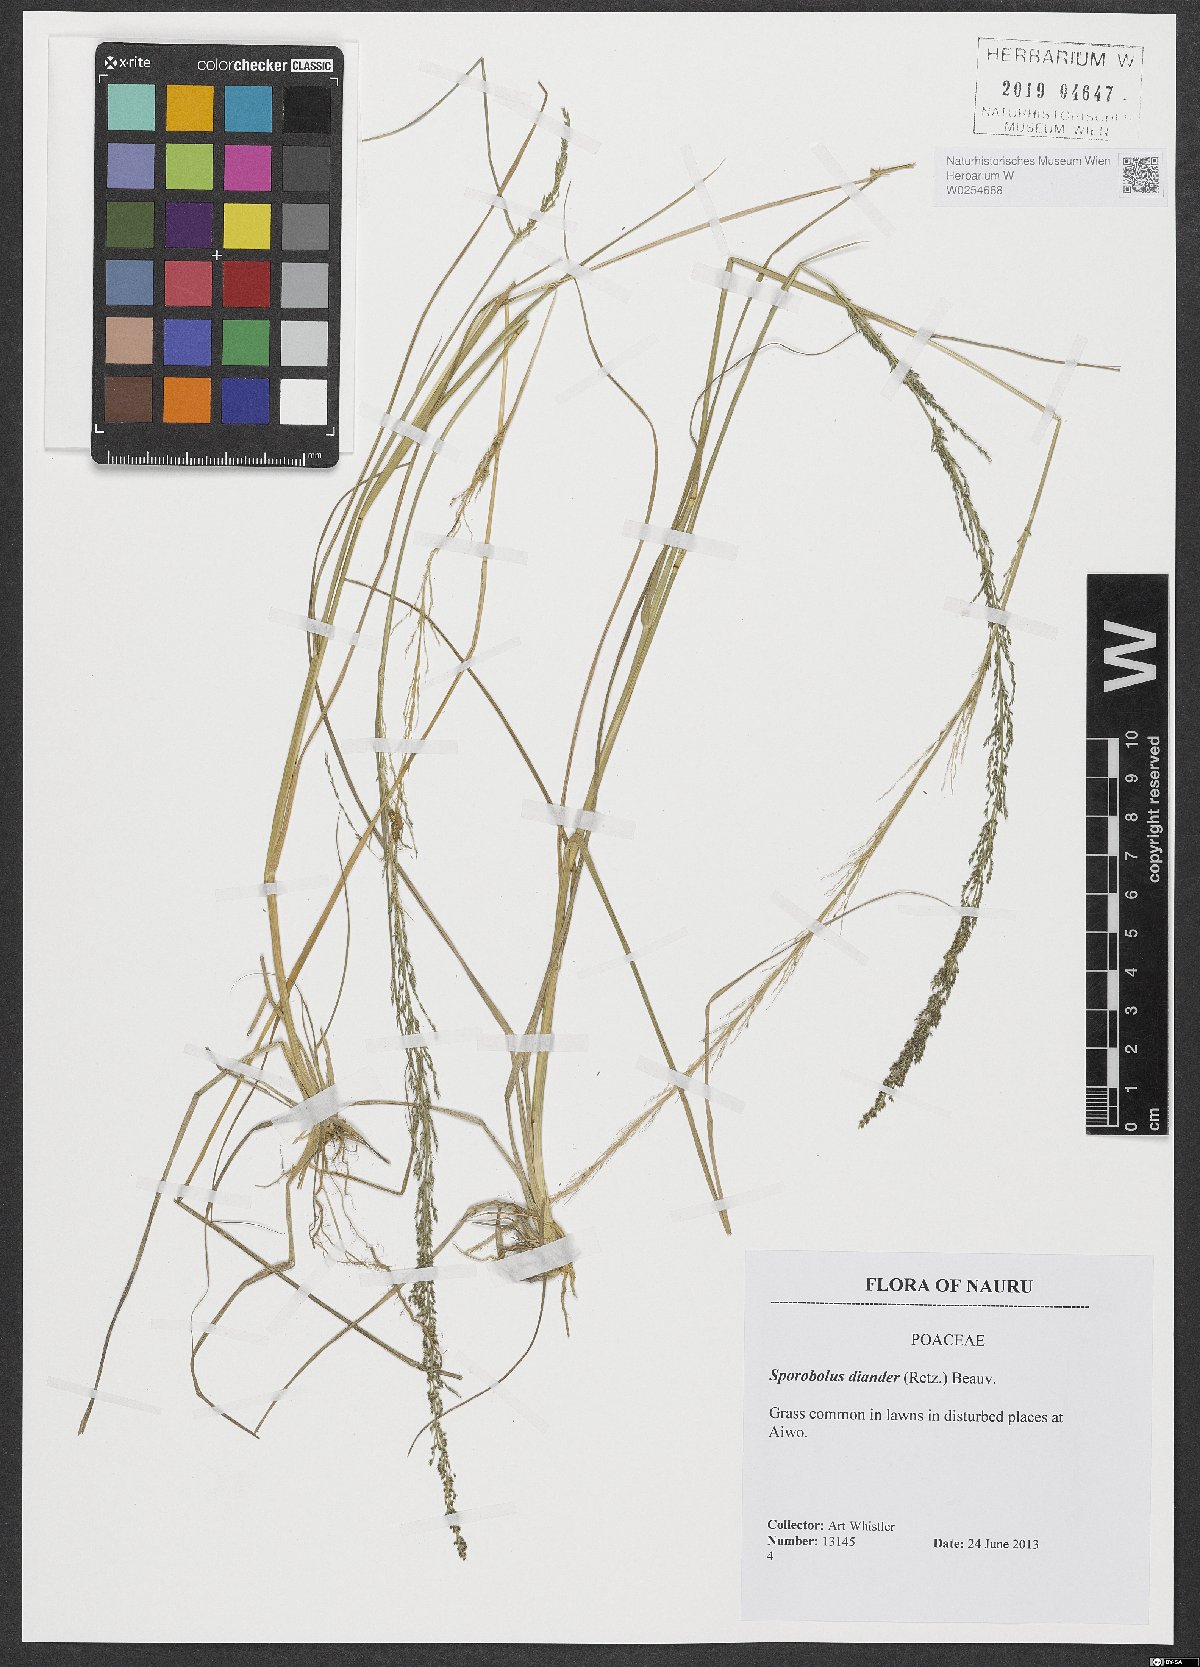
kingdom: Plantae
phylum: Tracheophyta
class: Liliopsida
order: Poales
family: Poaceae
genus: Sporobolus
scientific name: Sporobolus diandrus
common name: Tussock dropseed
